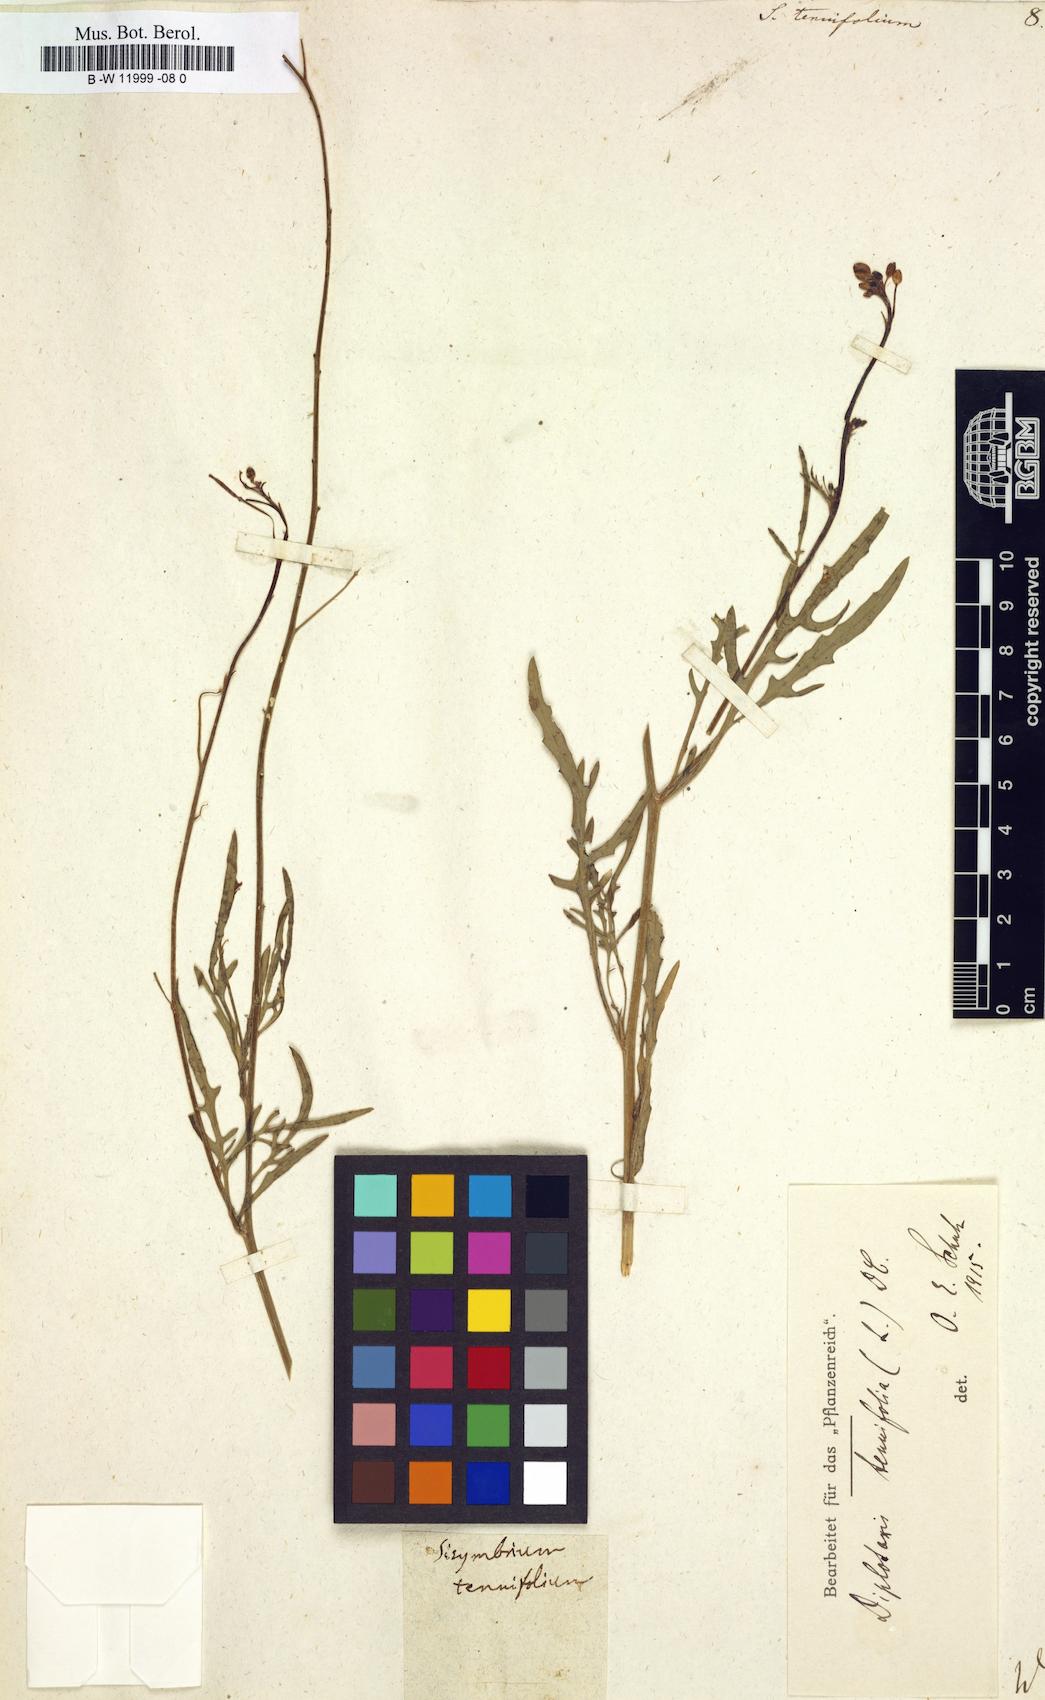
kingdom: Plantae
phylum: Tracheophyta
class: Magnoliopsida
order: Brassicales
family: Brassicaceae
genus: Sisymbrium
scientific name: Sisymbrium tenuifolium
